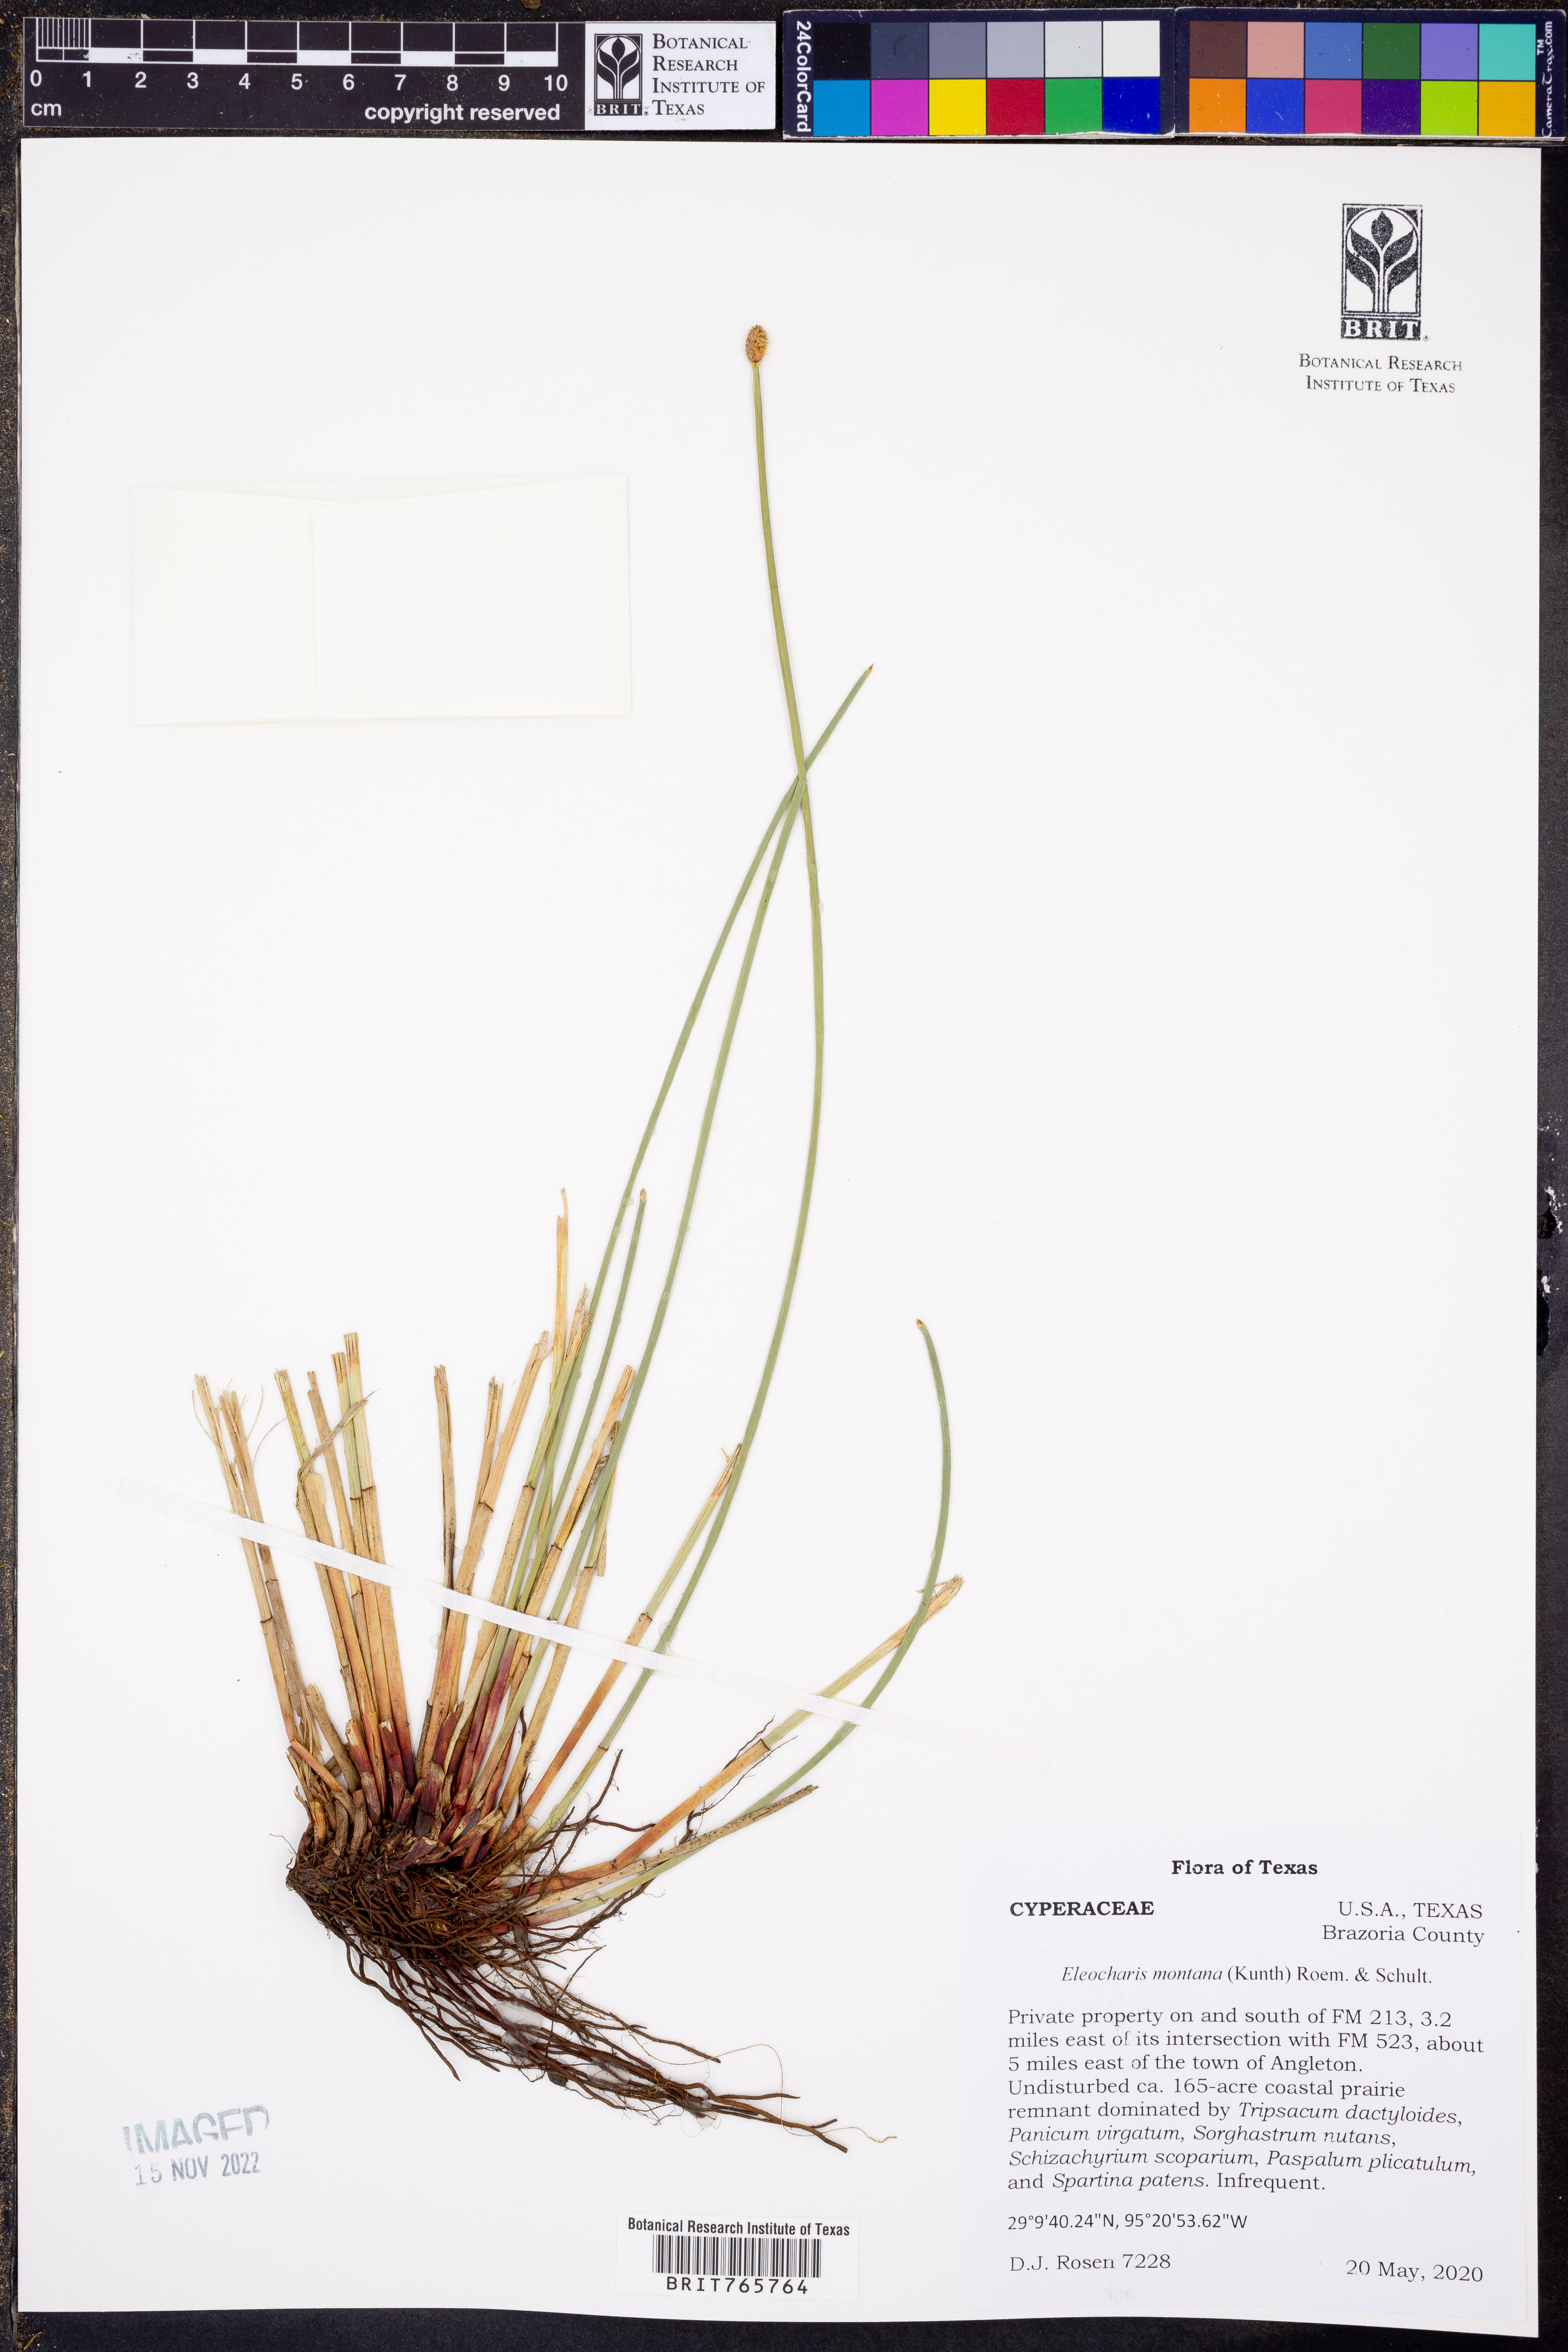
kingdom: Plantae
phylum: Tracheophyta
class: Liliopsida
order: Poales
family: Cyperaceae
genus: Eleocharis
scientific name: Eleocharis montana
